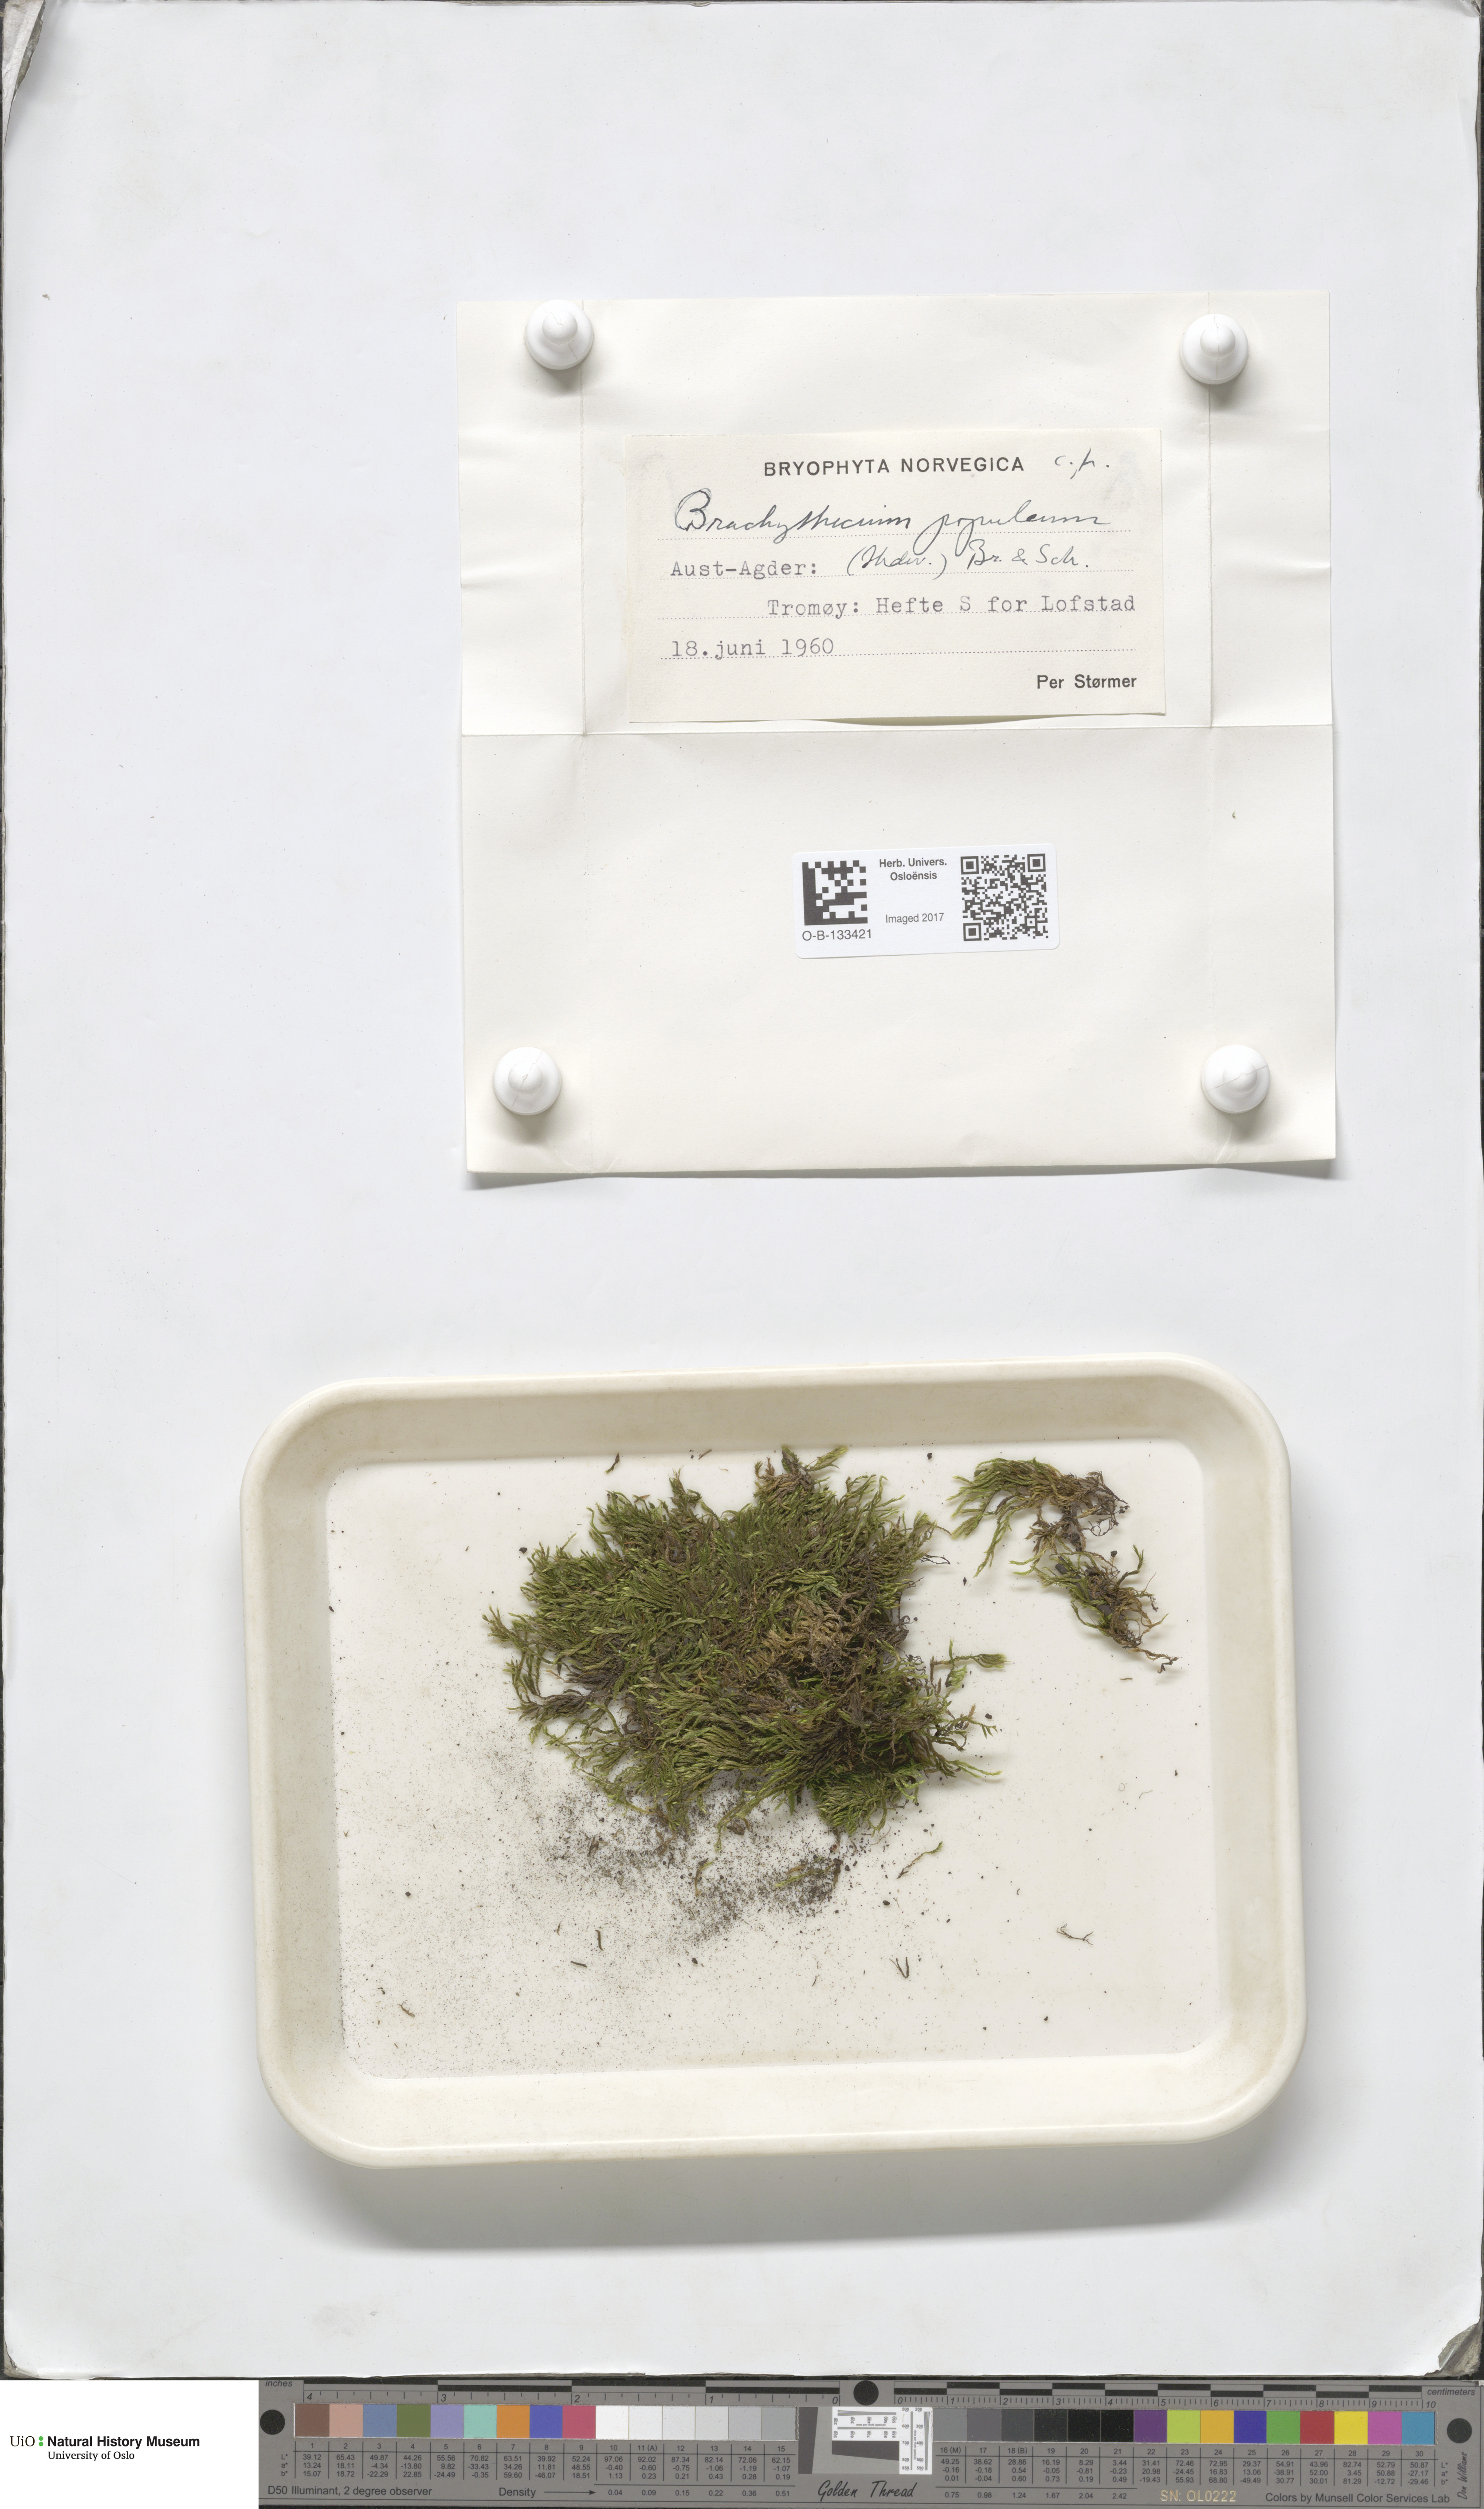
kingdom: Plantae
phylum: Bryophyta
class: Bryopsida
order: Hypnales
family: Brachytheciaceae
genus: Sciuro-hypnum
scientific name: Sciuro-hypnum plumosum
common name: Rusty feather-moss
